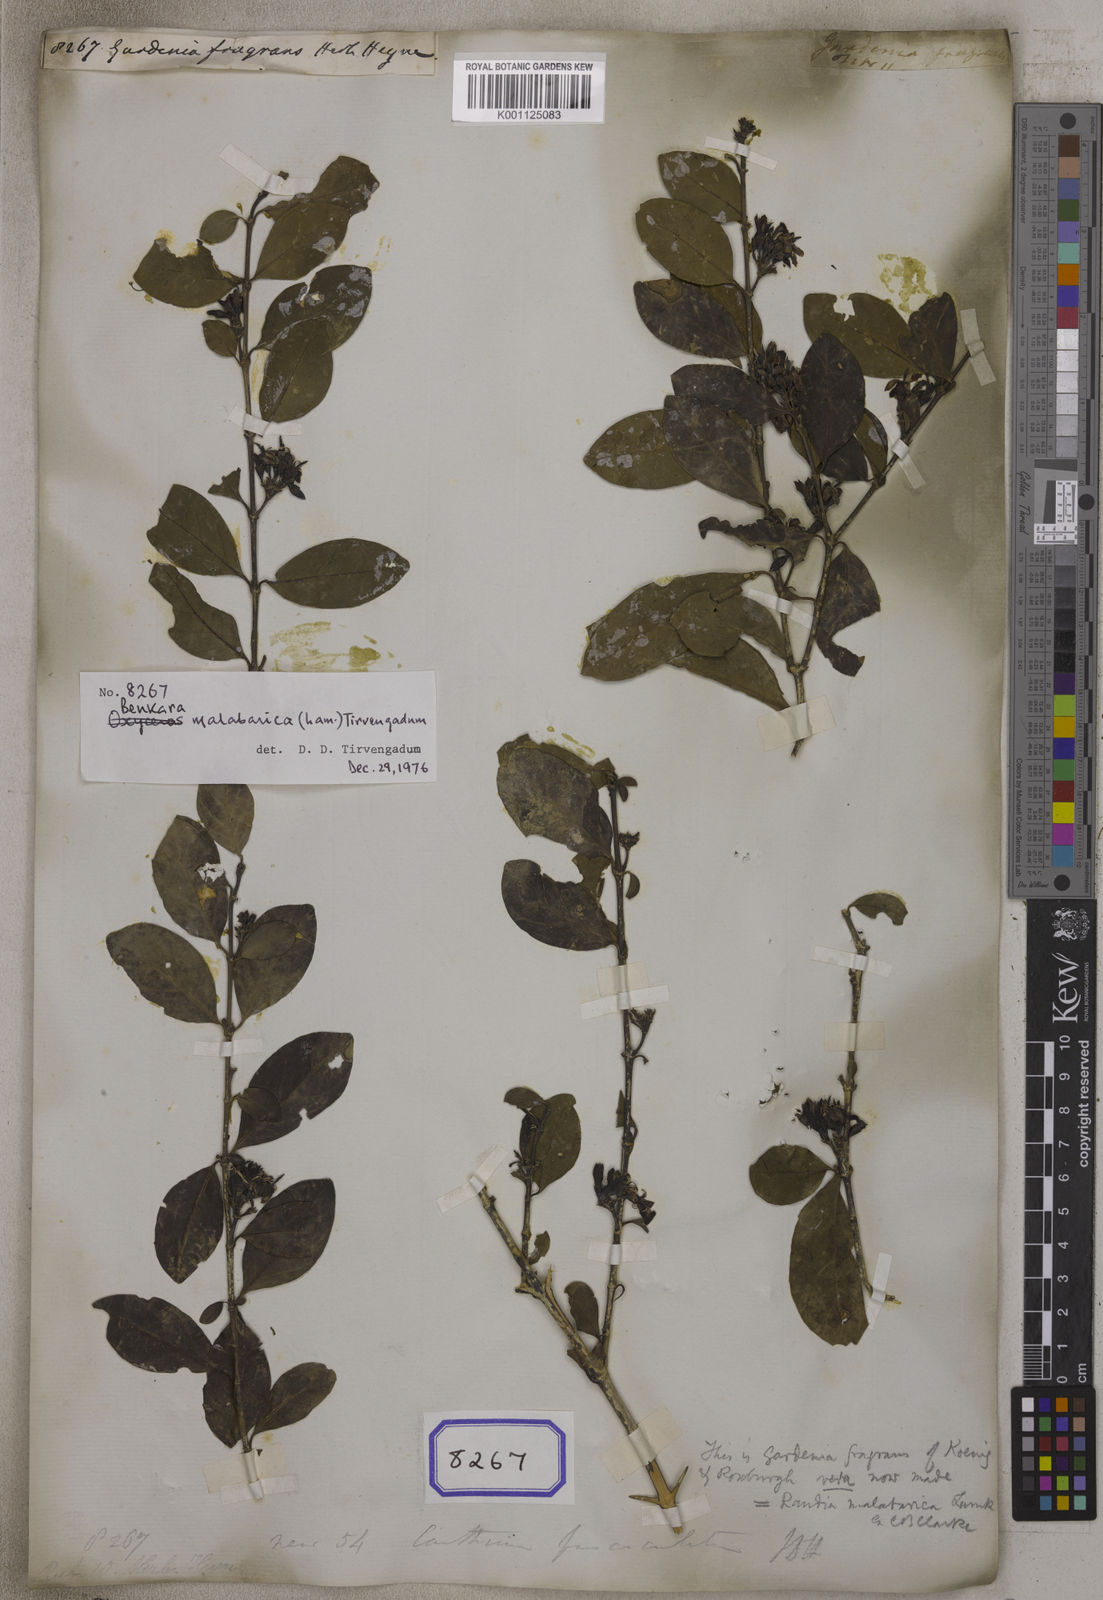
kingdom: Plantae
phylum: Tracheophyta
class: Magnoliopsida
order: Gentianales
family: Rubiaceae
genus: Benkara
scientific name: Benkara malabarica
